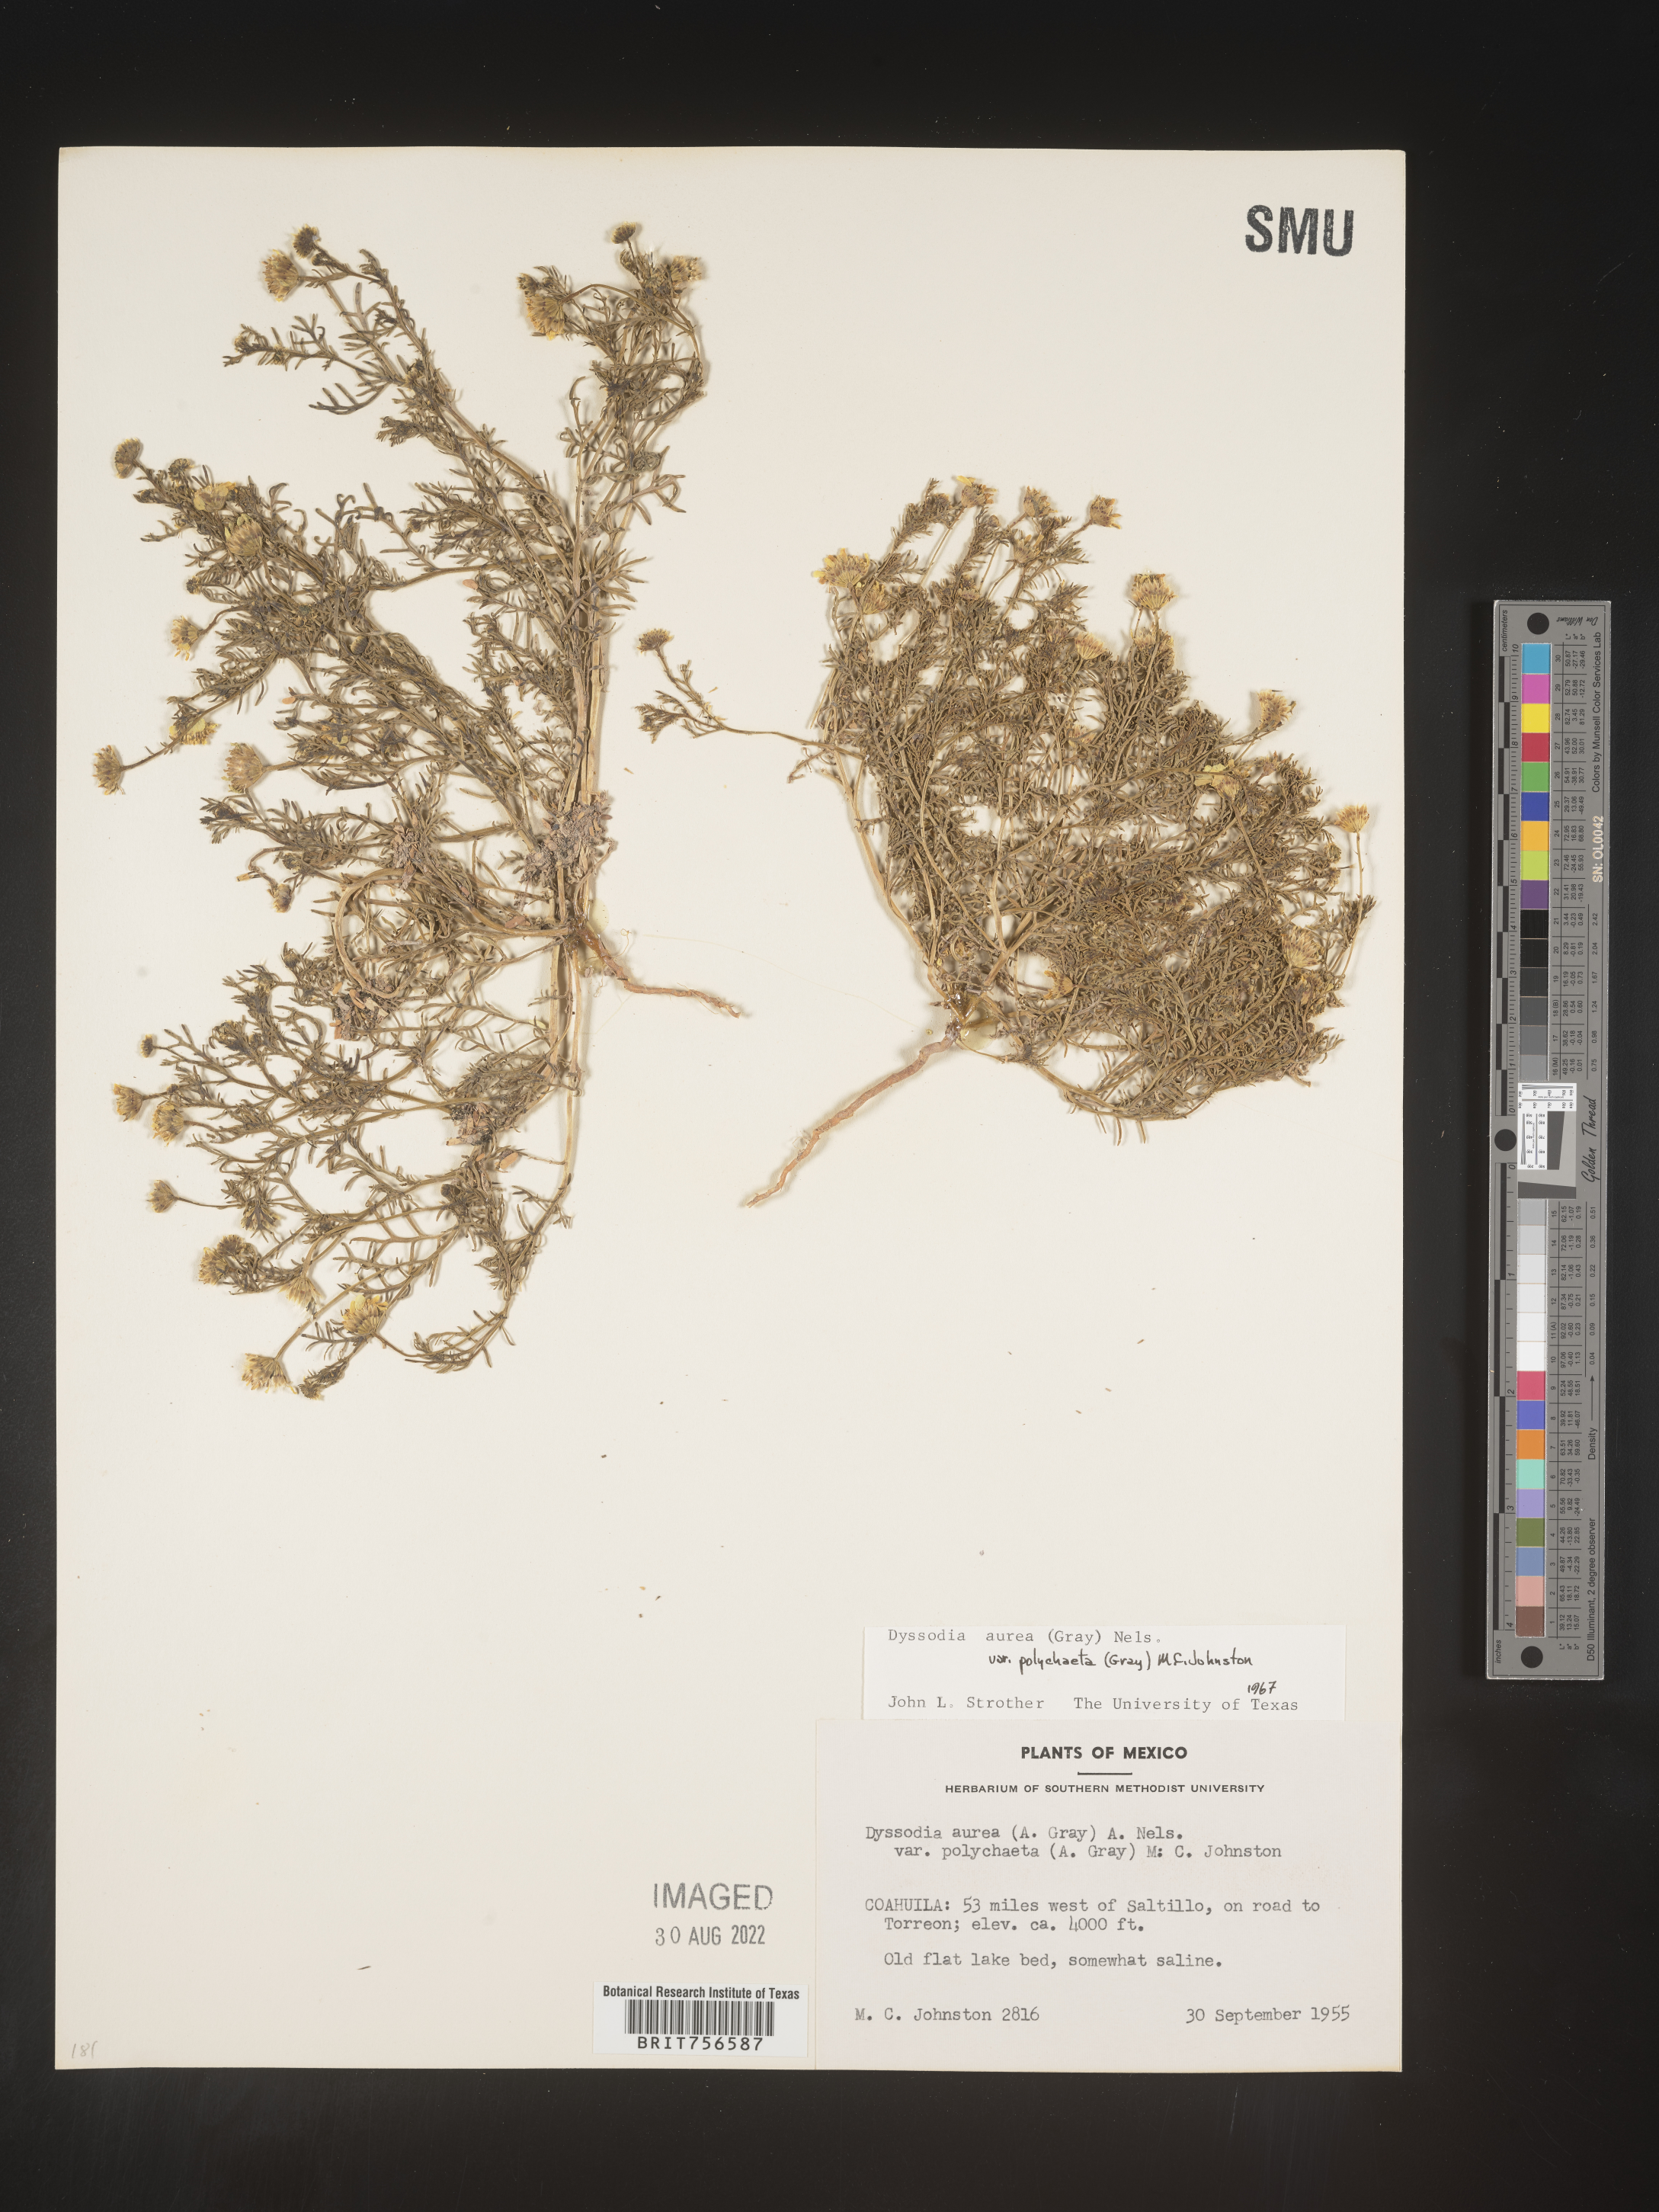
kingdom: Plantae
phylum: Tracheophyta
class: Magnoliopsida
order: Asterales
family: Asteraceae
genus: Thymophylla
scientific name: Thymophylla aurea
